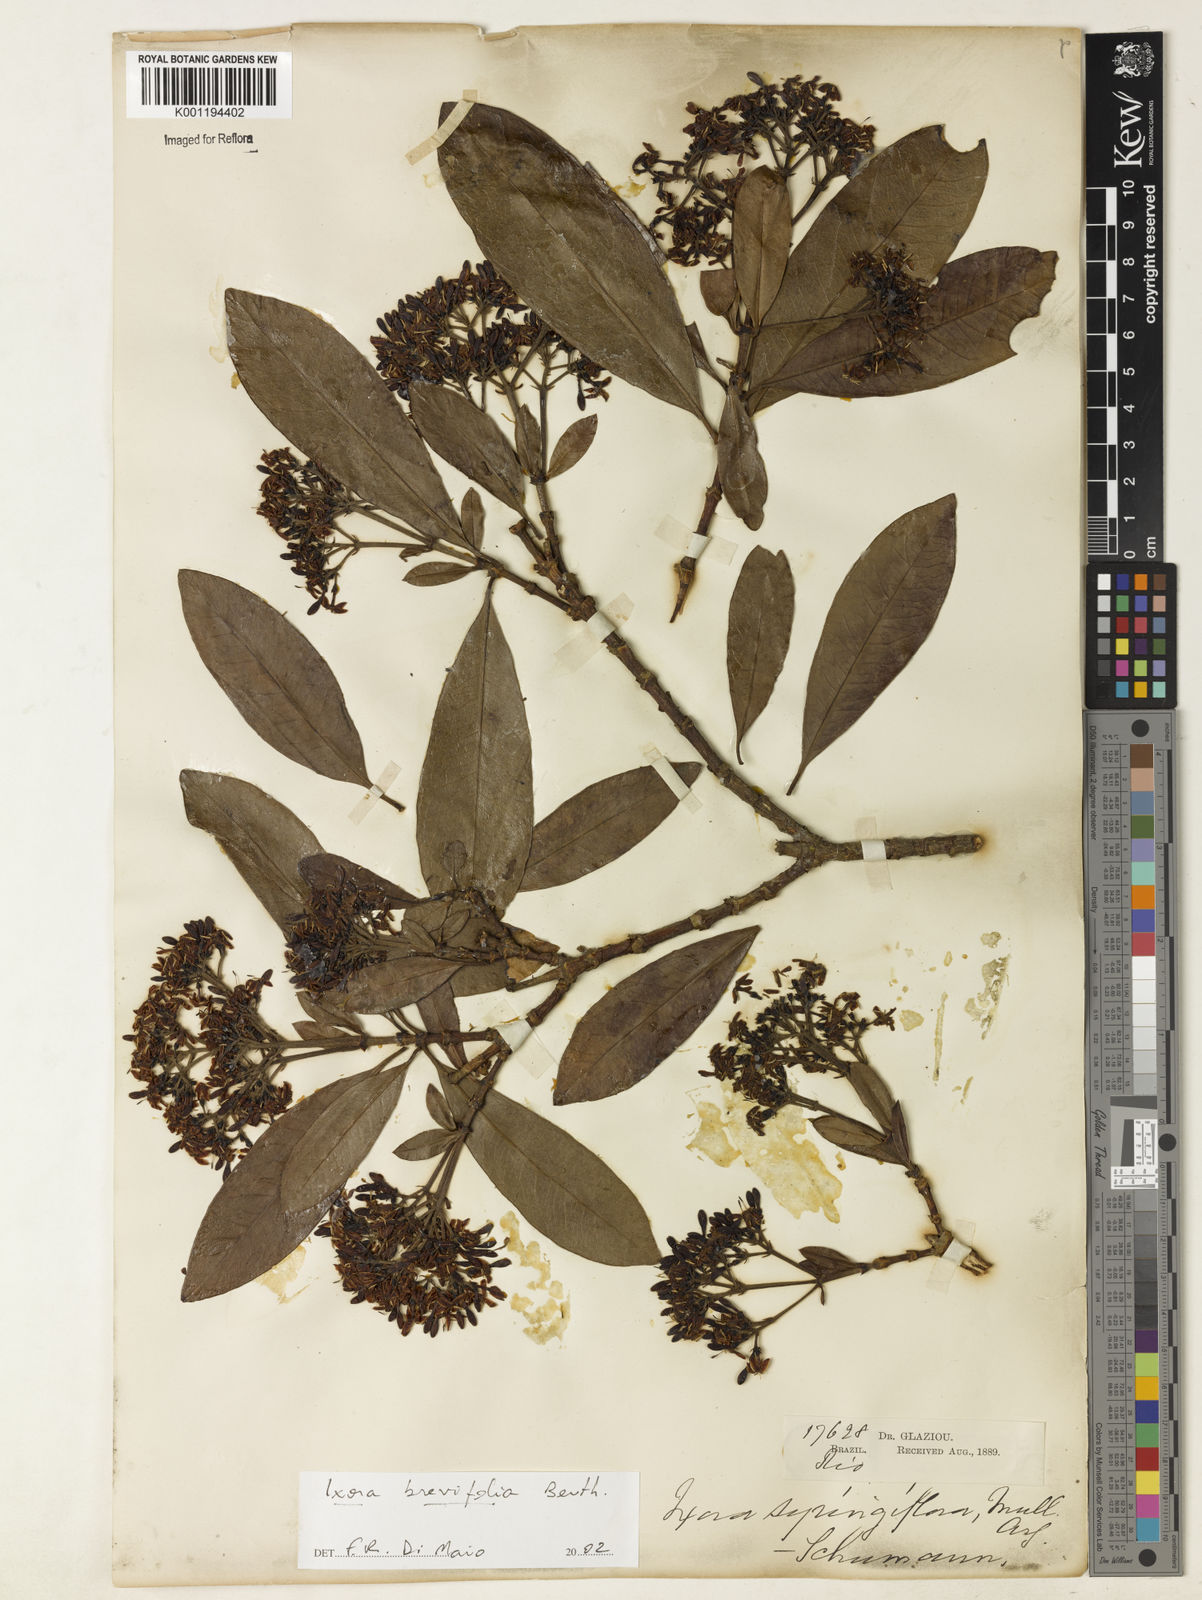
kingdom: Plantae
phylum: Tracheophyta
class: Magnoliopsida
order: Gentianales
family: Rubiaceae
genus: Ixora
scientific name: Ixora brevifolia
